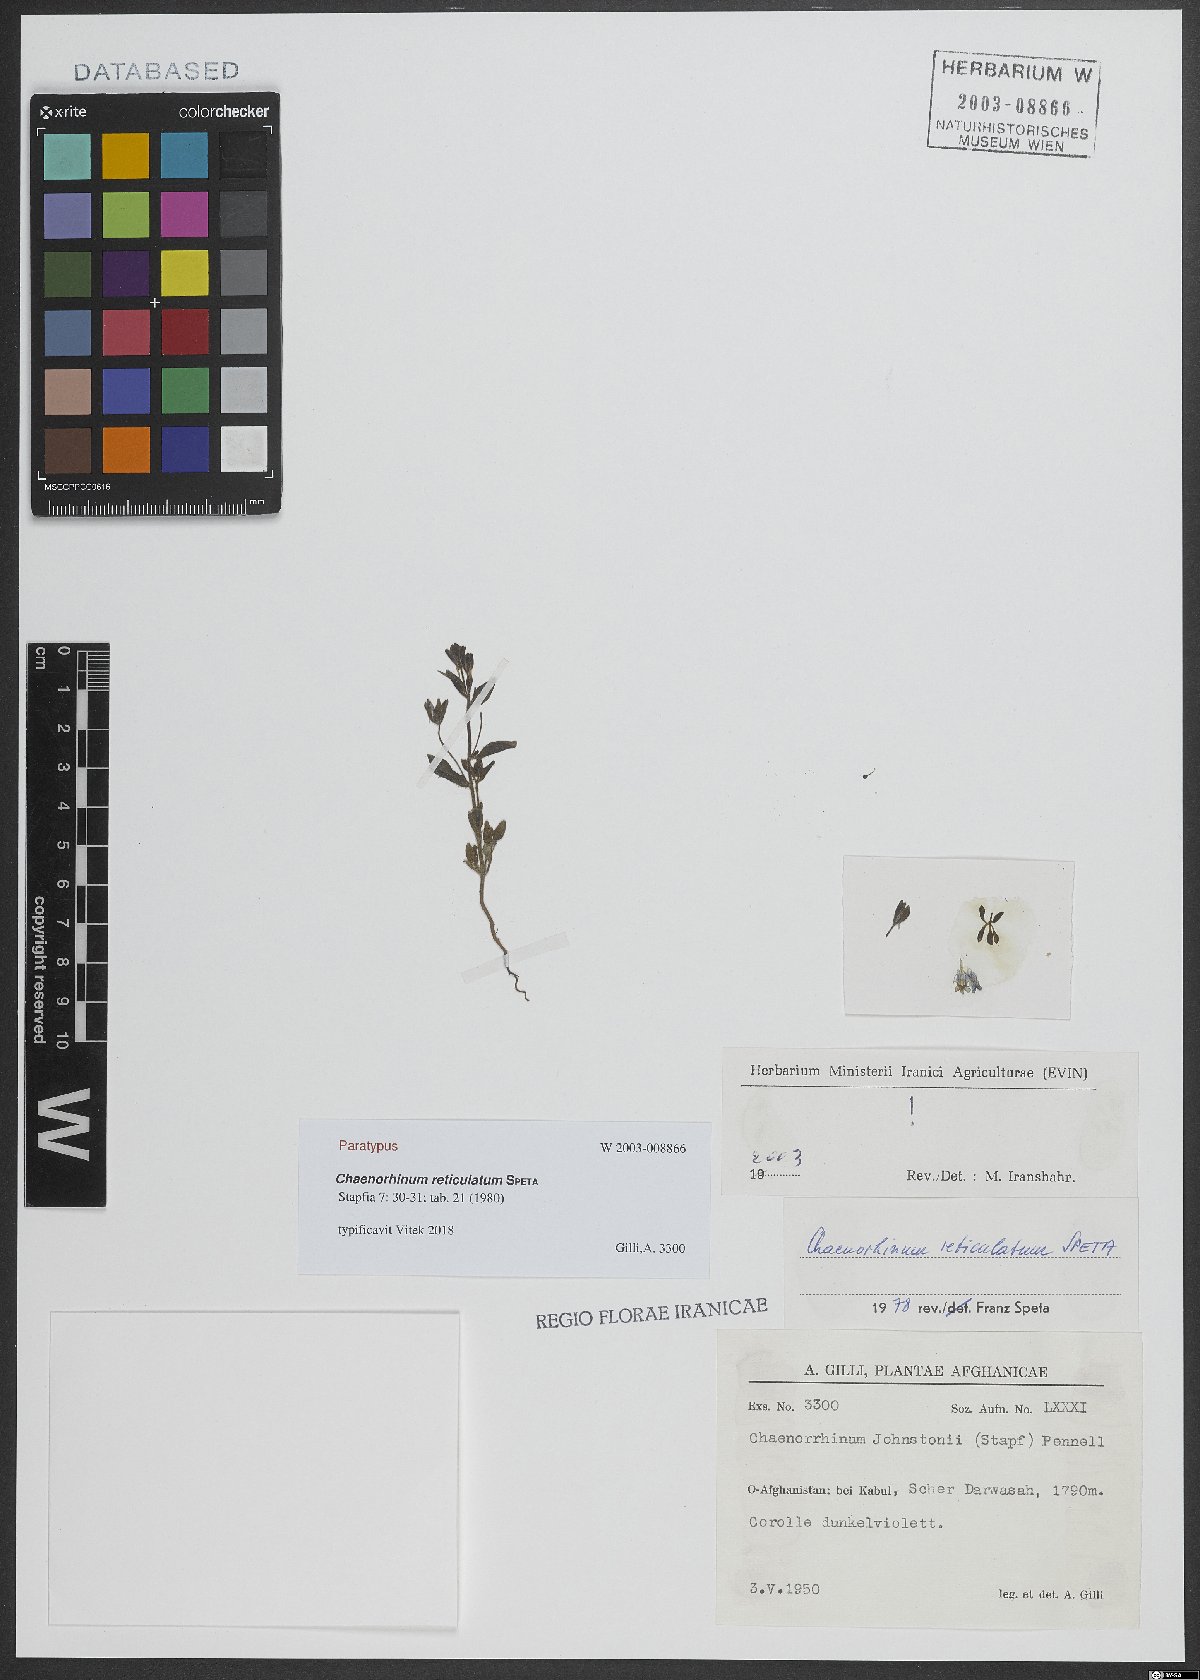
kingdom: Plantae
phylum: Tracheophyta
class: Magnoliopsida
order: Lamiales
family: Plantaginaceae
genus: Chaenorhinum
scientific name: Chaenorhinum reticulatum
